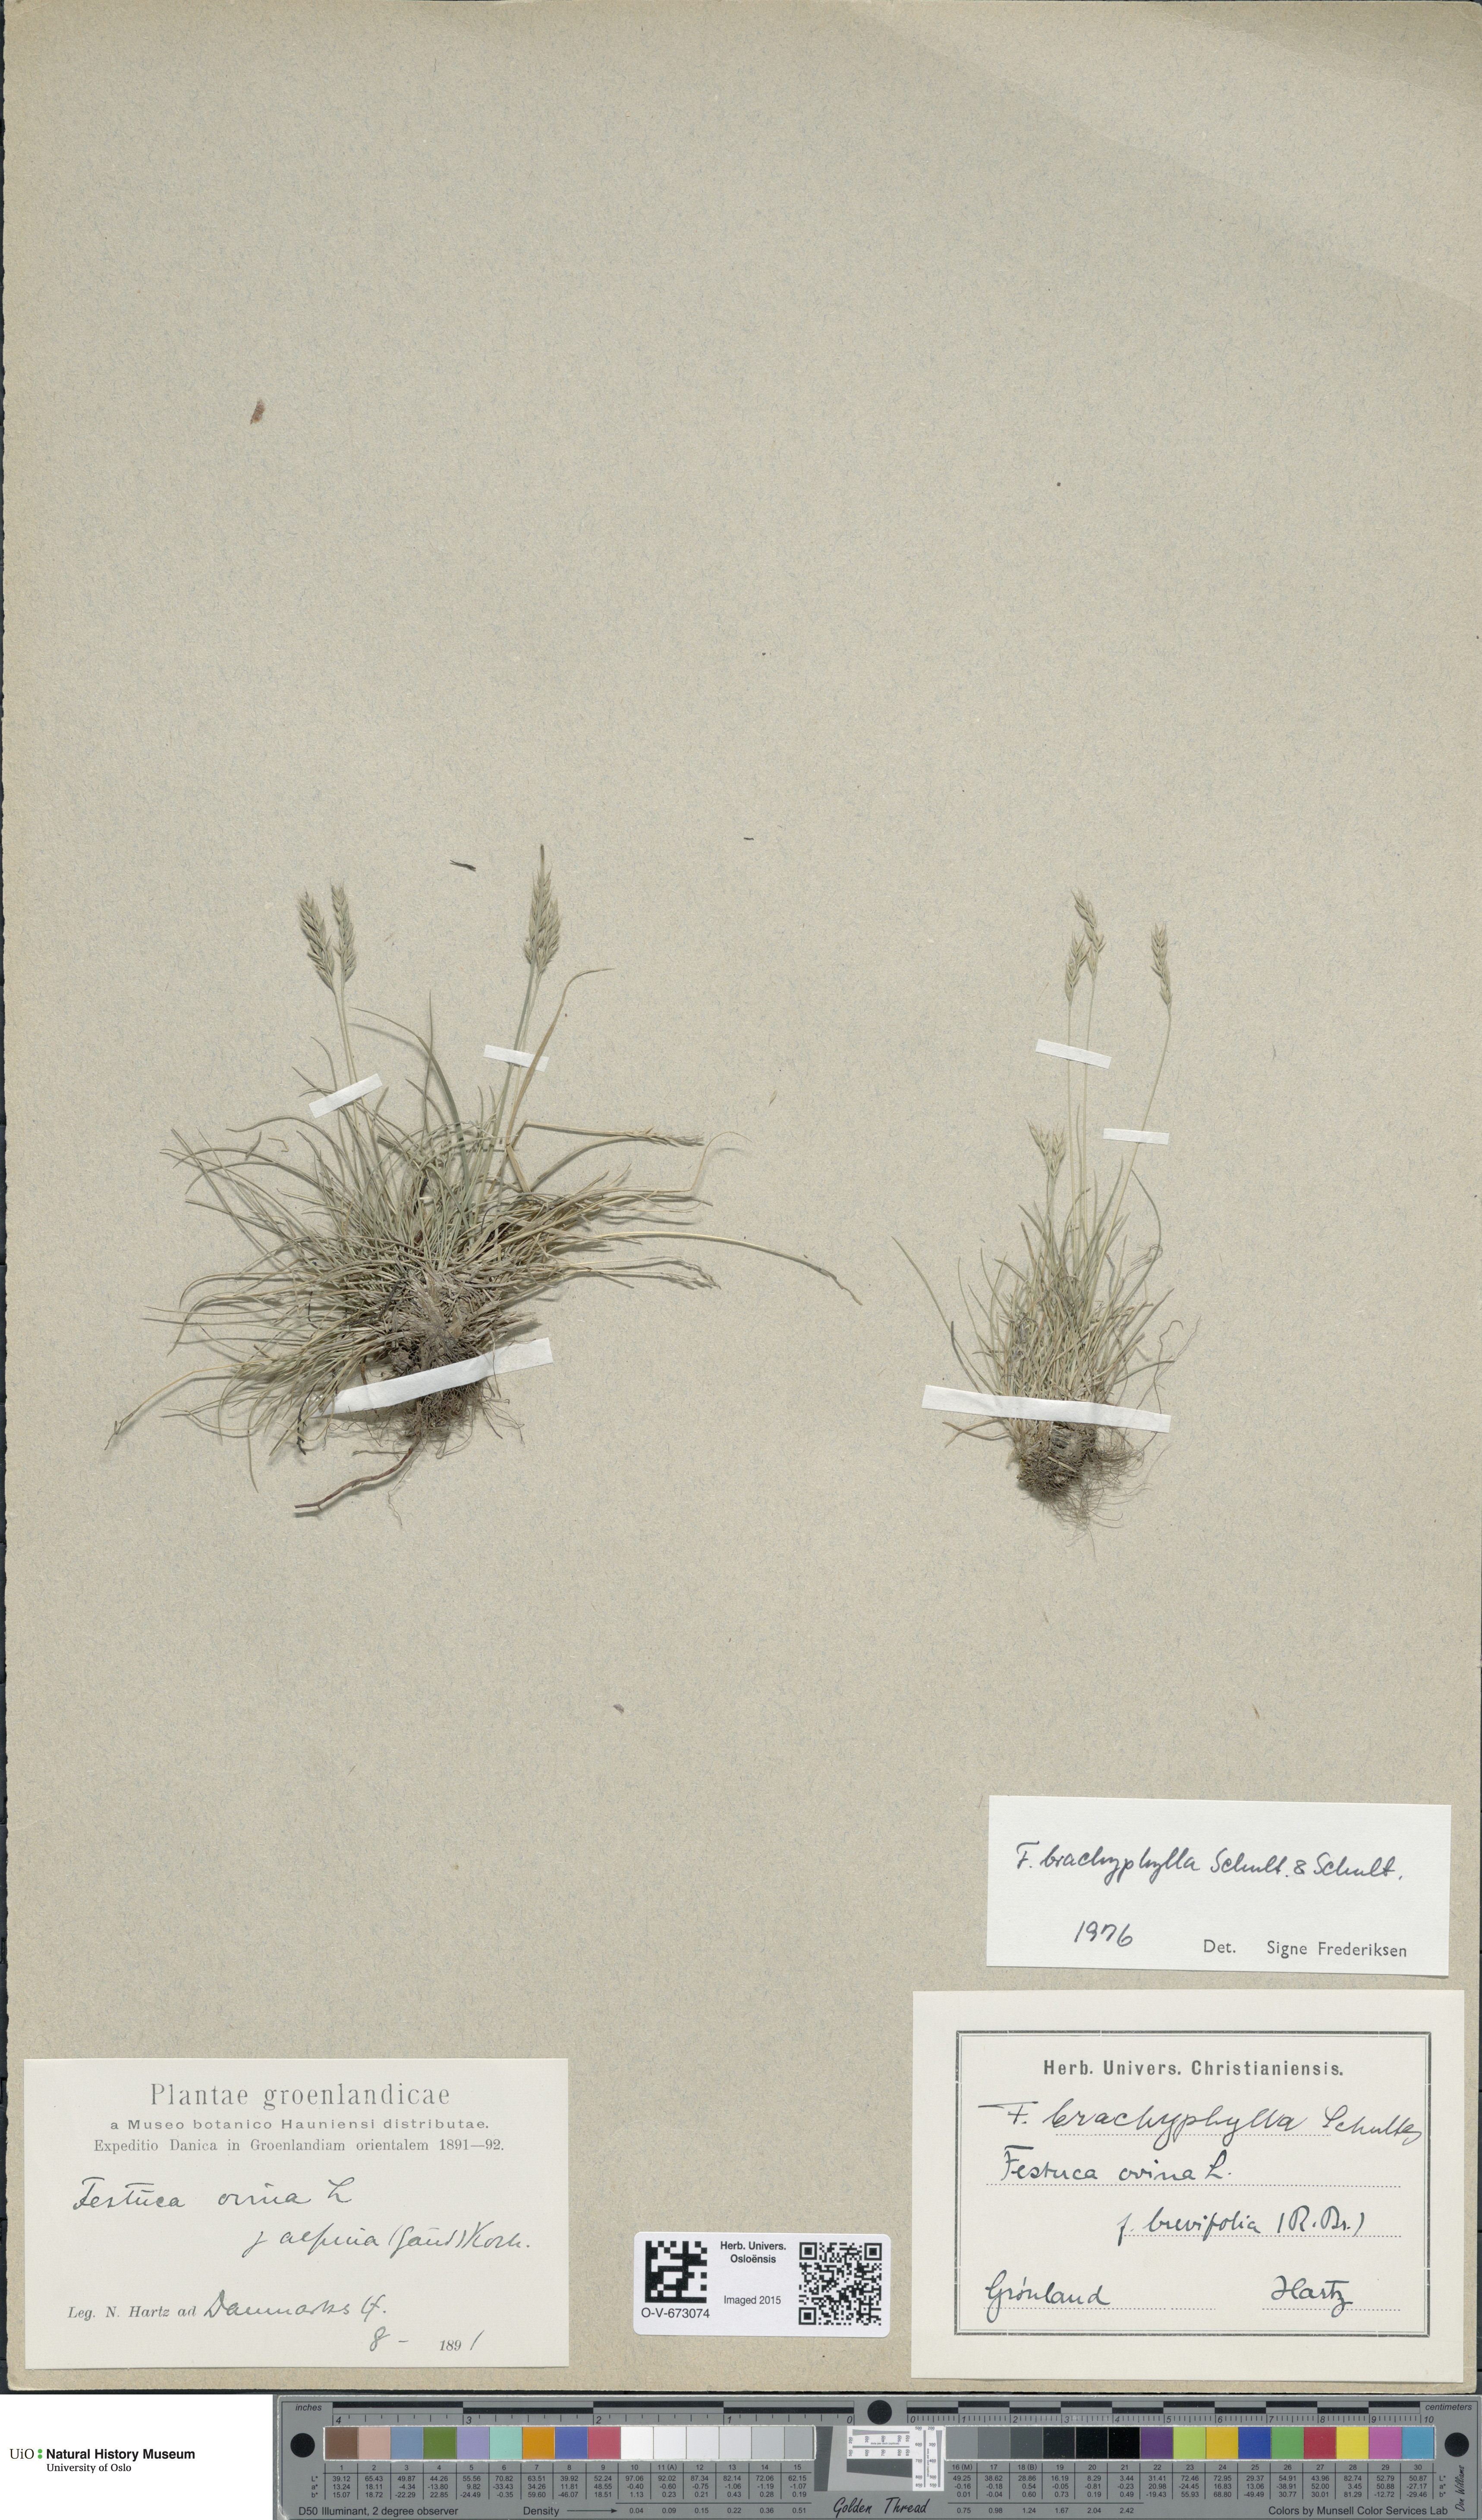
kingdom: Plantae
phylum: Tracheophyta
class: Liliopsida
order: Poales
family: Poaceae
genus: Festuca
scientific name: Festuca brachyphylla
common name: Alpine fescue
